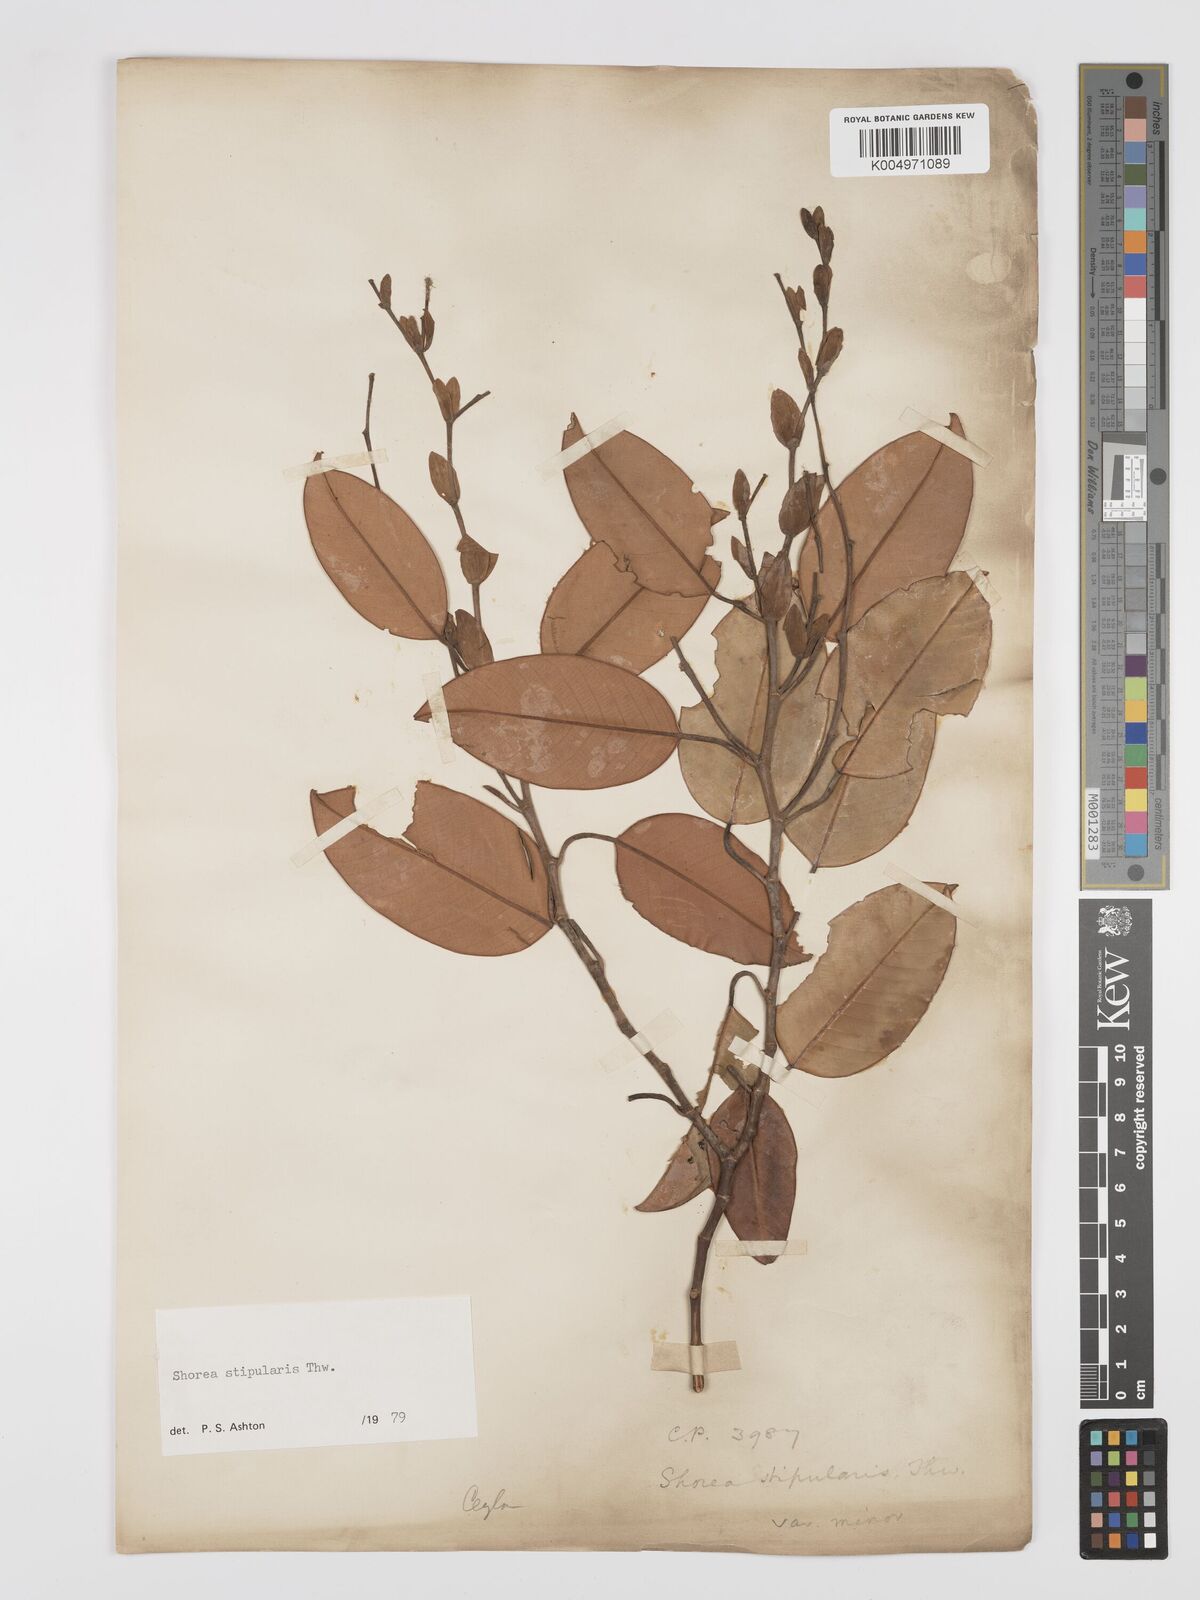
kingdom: Plantae
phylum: Tracheophyta
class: Magnoliopsida
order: Malvales
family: Dipterocarpaceae
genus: Anthoshorea
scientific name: Anthoshorea stipularis
